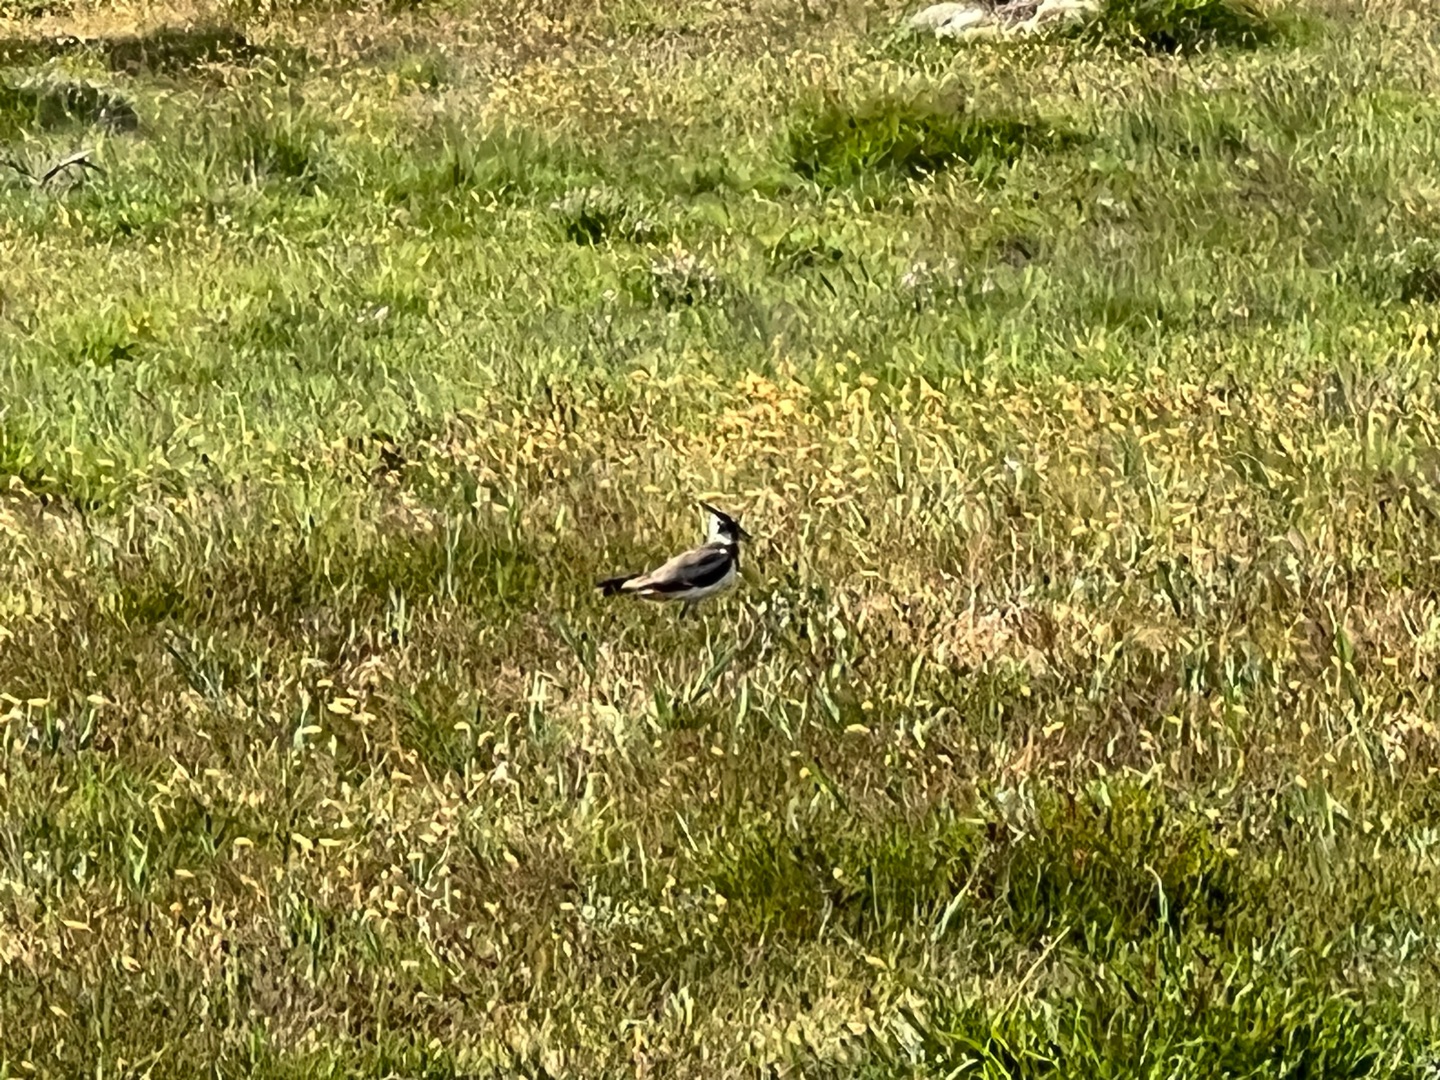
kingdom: Animalia
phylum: Chordata
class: Aves
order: Charadriiformes
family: Charadriidae
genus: Vanellus
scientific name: Vanellus vanellus
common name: Vibe
